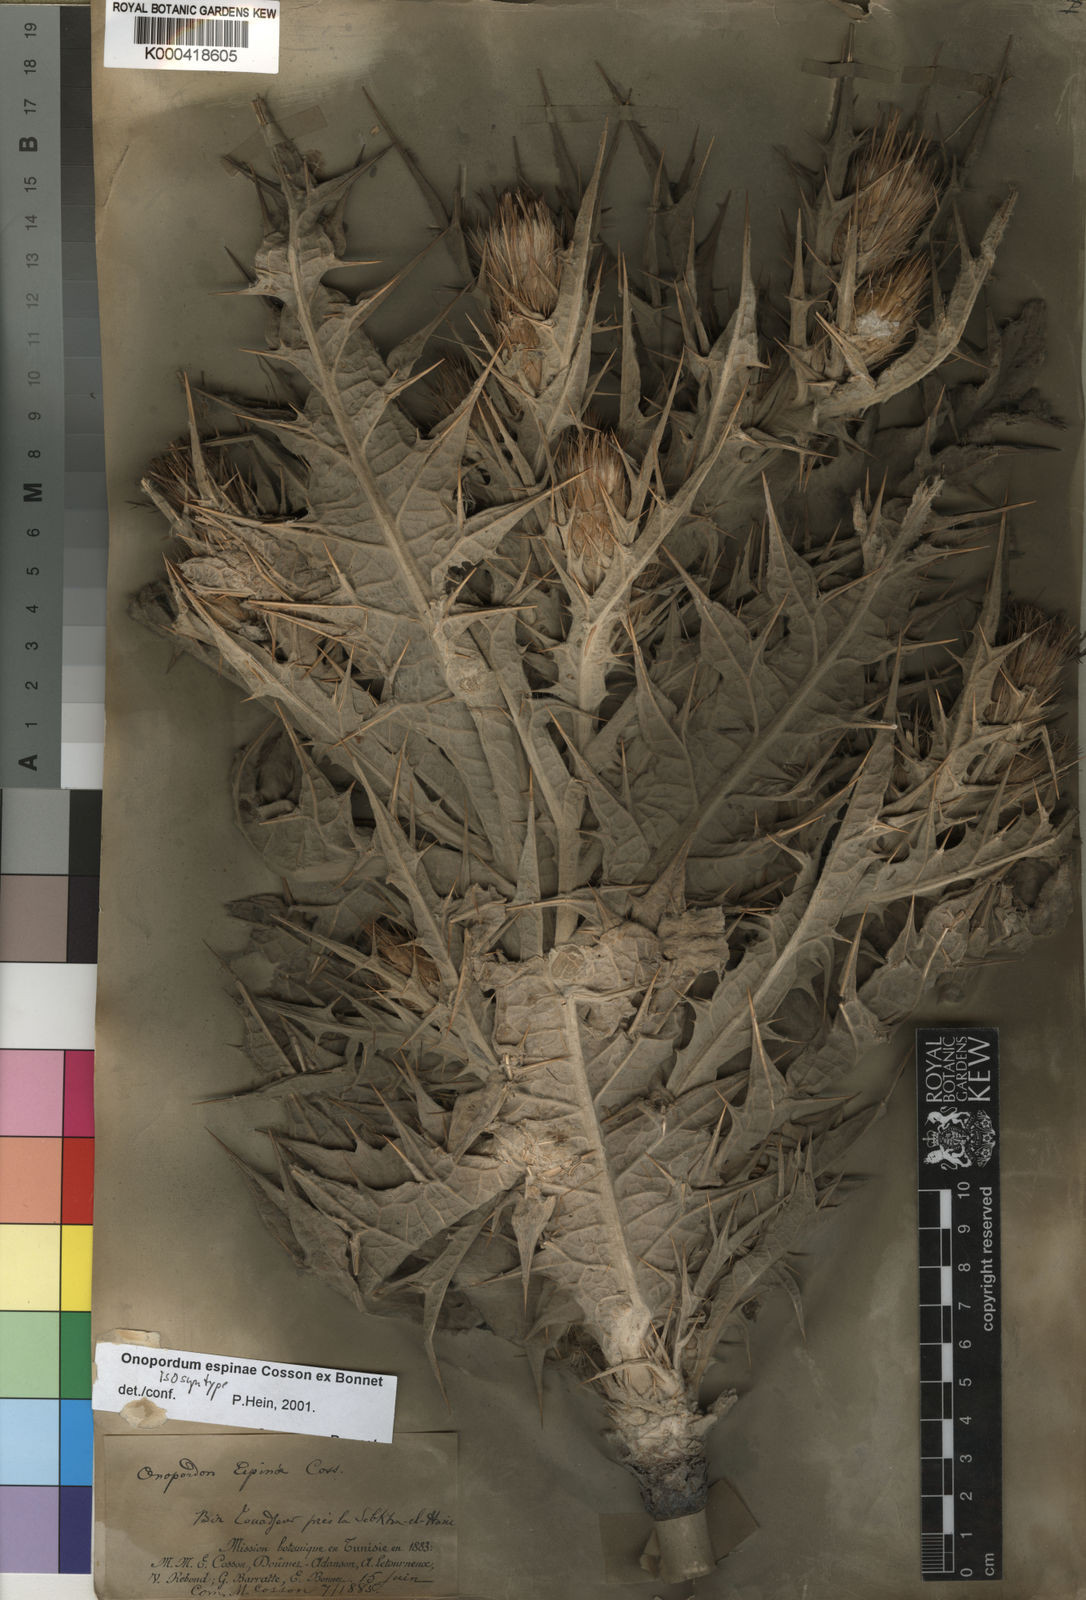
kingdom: Plantae
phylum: Tracheophyta
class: Magnoliopsida
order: Asterales
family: Asteraceae
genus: Onopordum
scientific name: Onopordum
